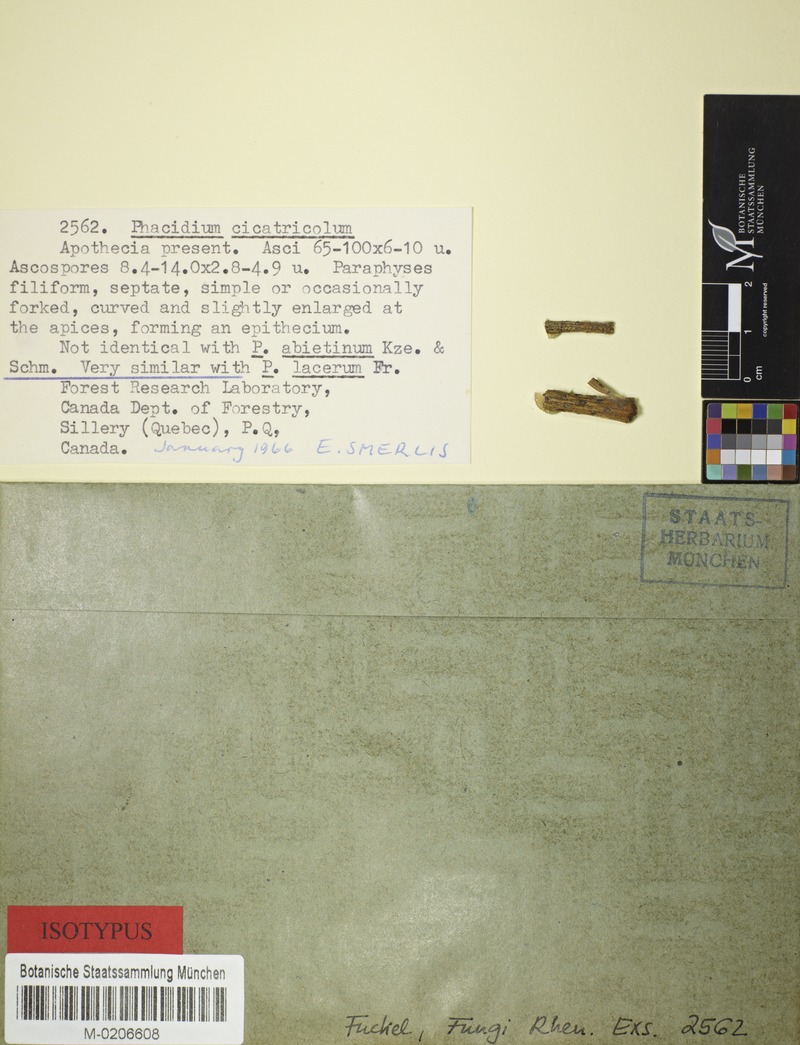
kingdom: Fungi
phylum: Ascomycota
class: Leotiomycetes
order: Phacidiales
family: Phacidiaceae
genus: Phacidium
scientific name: Phacidium
